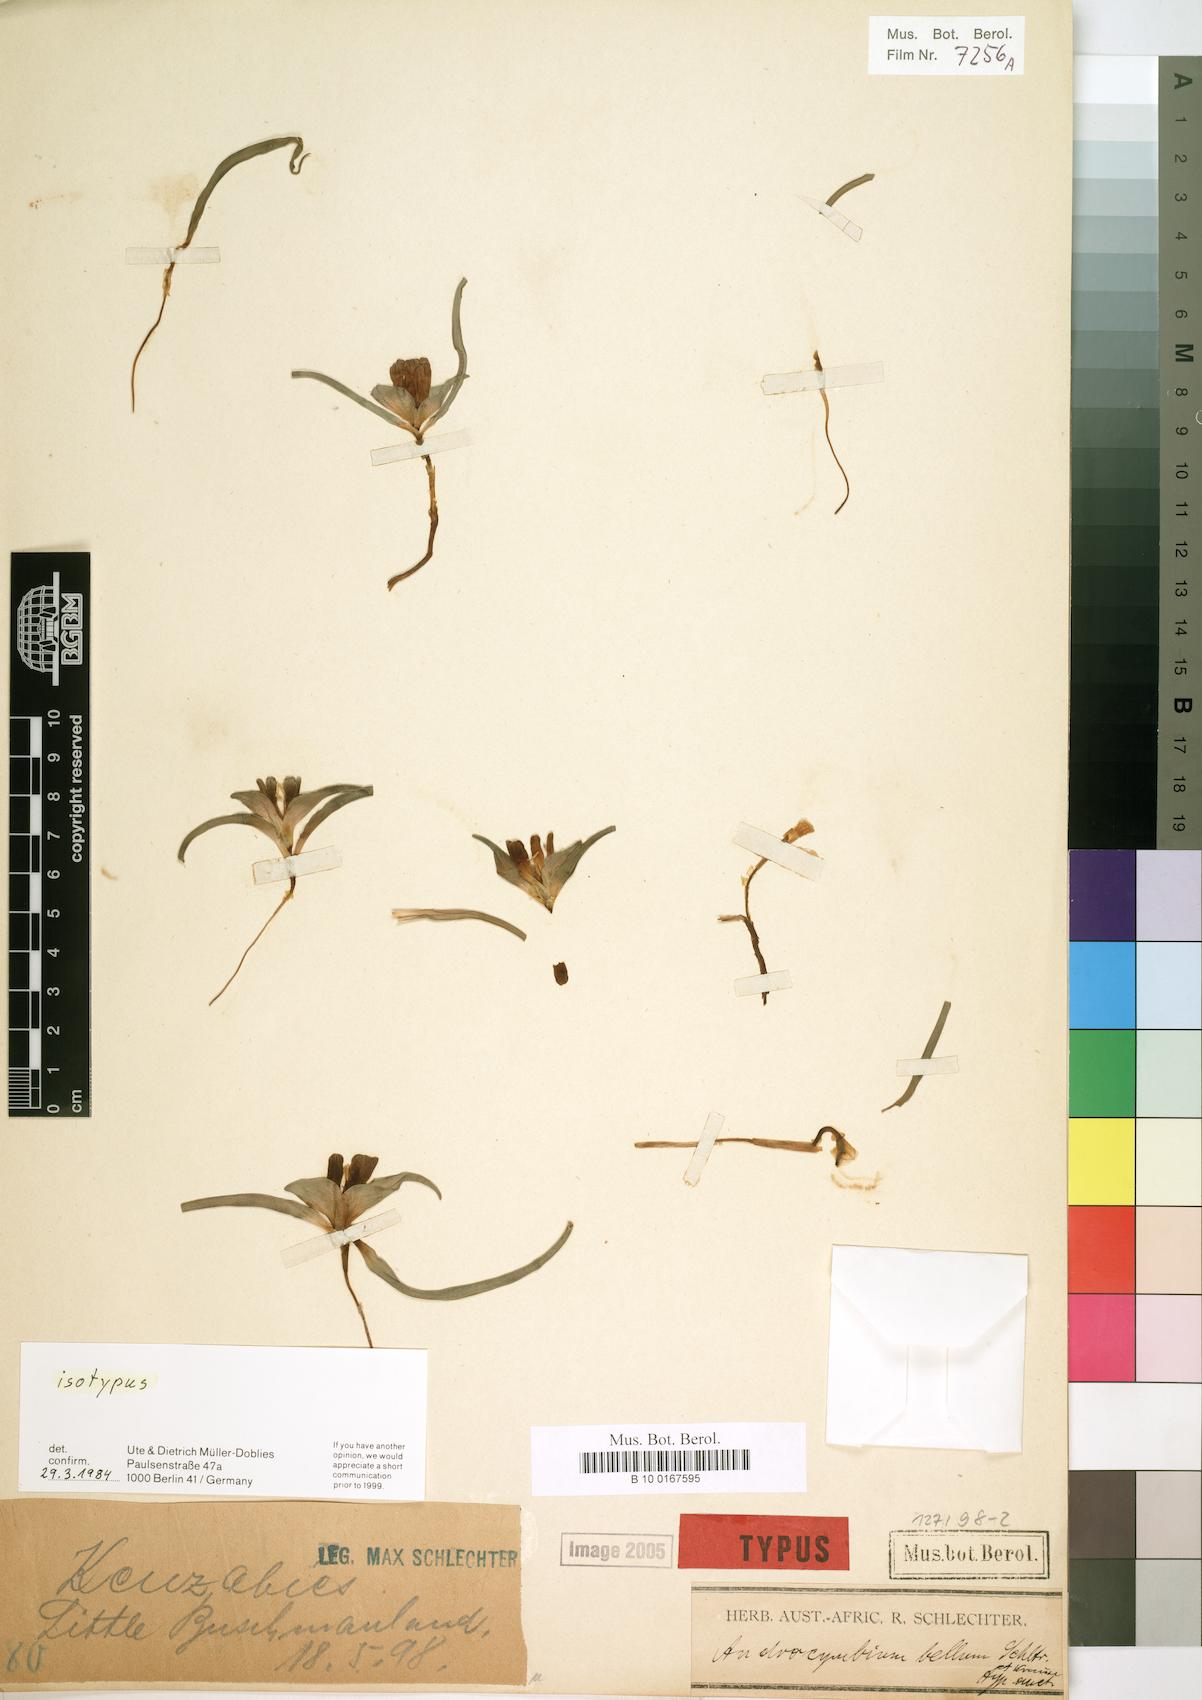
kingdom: Plantae
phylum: Tracheophyta
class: Liliopsida
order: Liliales
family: Colchicaceae
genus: Colchicum
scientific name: Colchicum bellum
